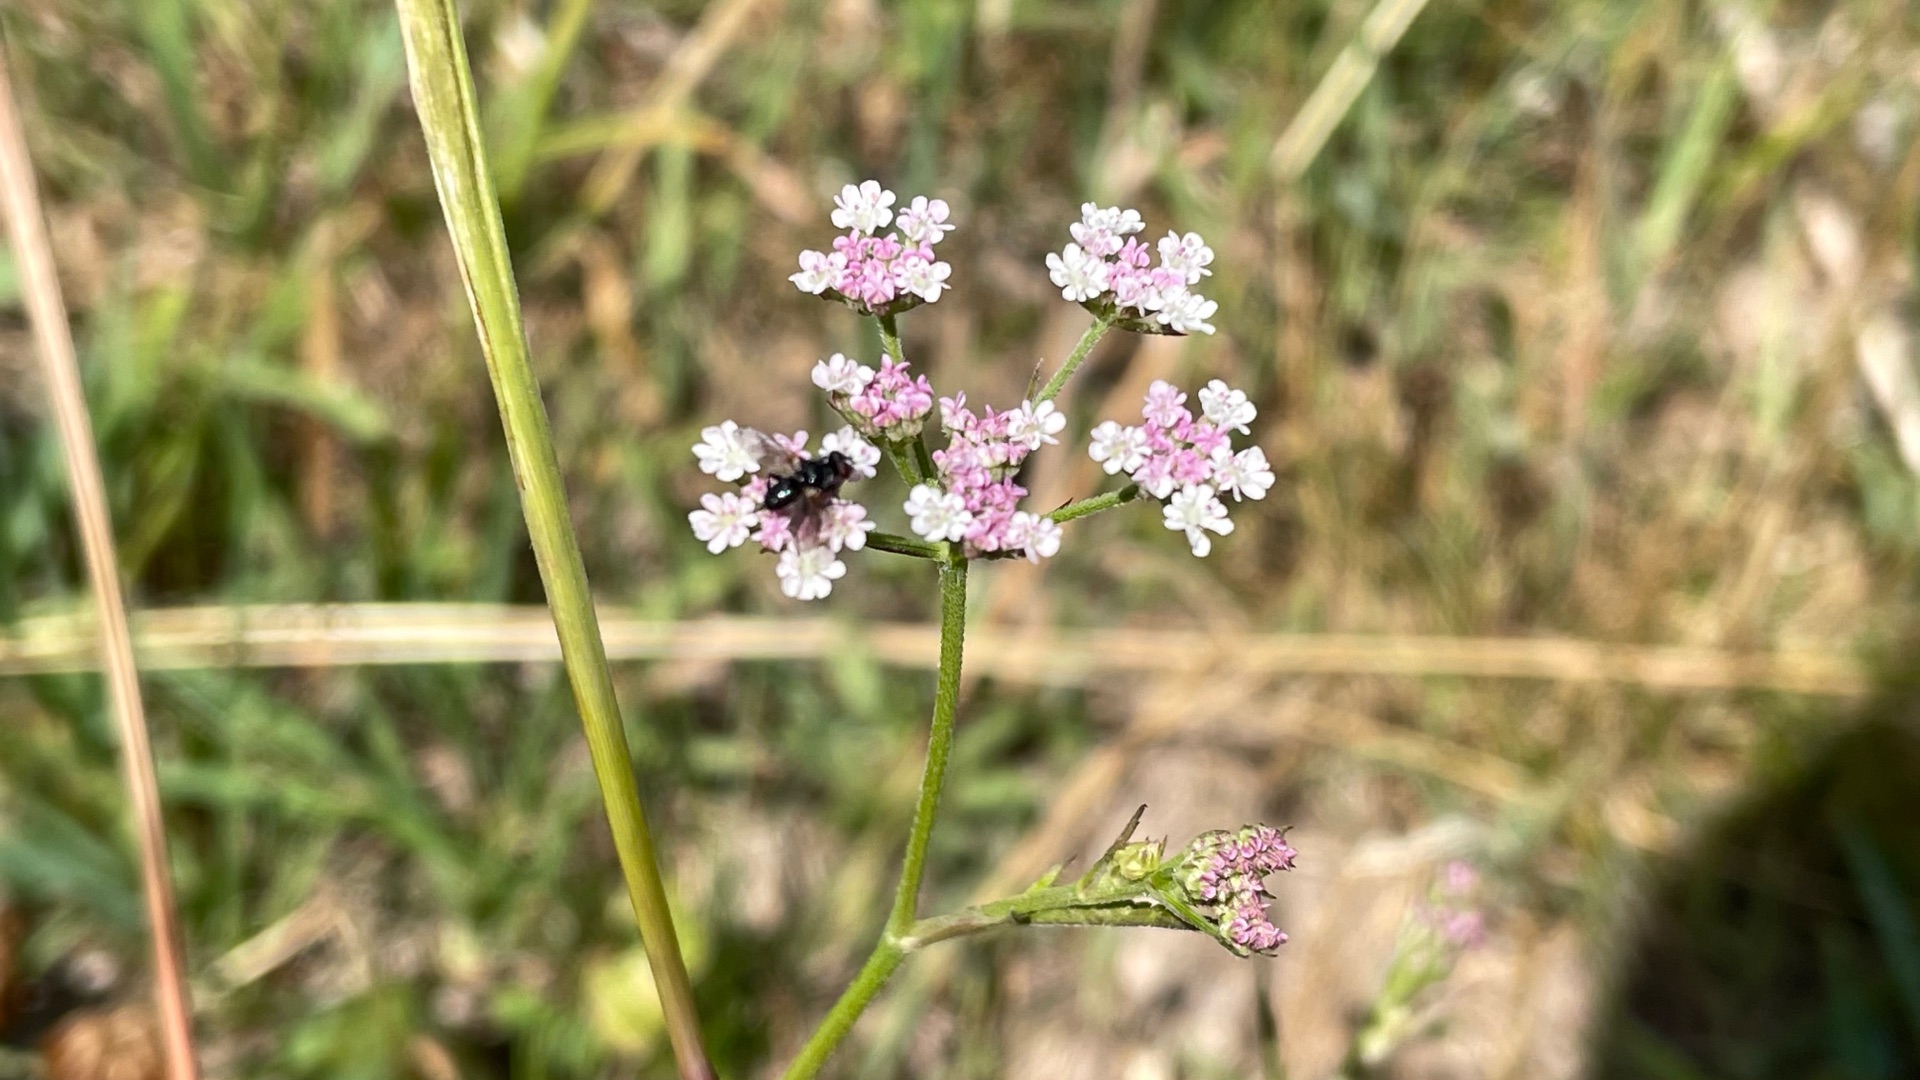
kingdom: Plantae
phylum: Tracheophyta
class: Magnoliopsida
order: Apiales
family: Apiaceae
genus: Torilis
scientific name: Torilis japonica
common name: Hvas randfrø
